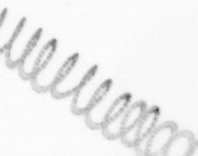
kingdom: Chromista
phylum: Ochrophyta
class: Bacillariophyceae
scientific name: Bacillariophyceae
